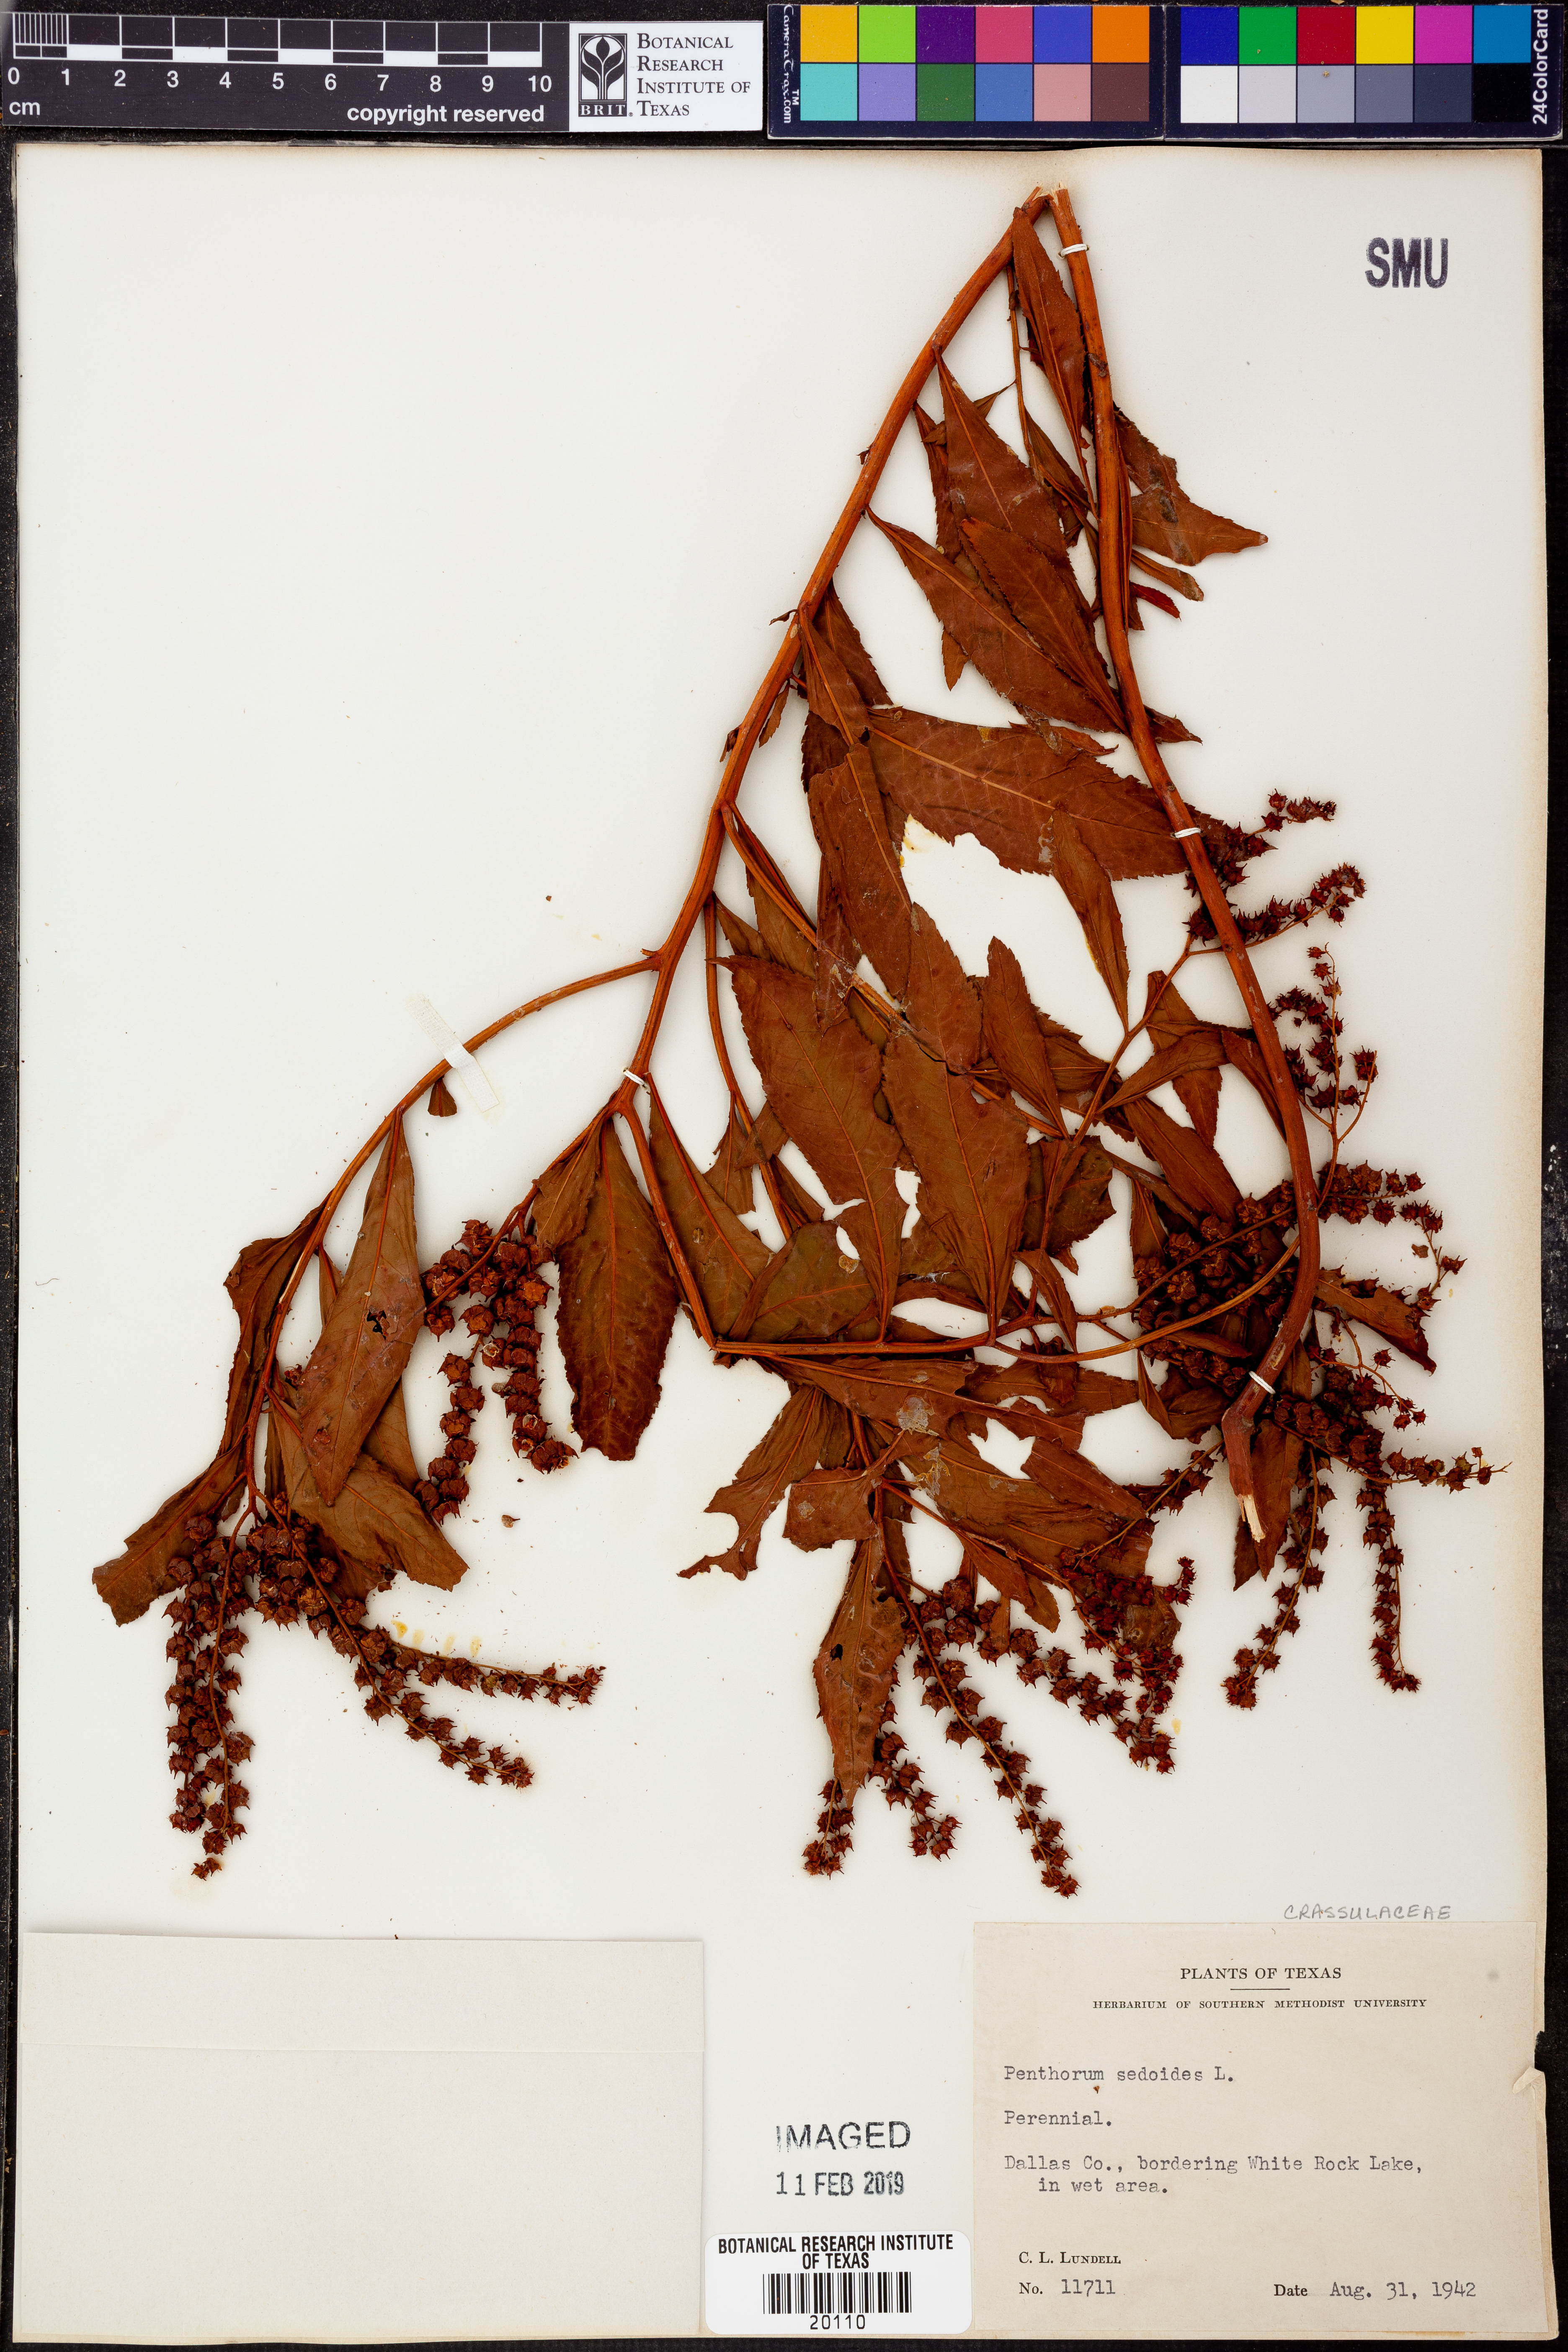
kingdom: Plantae
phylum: Tracheophyta
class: Magnoliopsida
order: Saxifragales
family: Penthoraceae
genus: Penthorum
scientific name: Penthorum sedoides
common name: Ditch stonecrop
